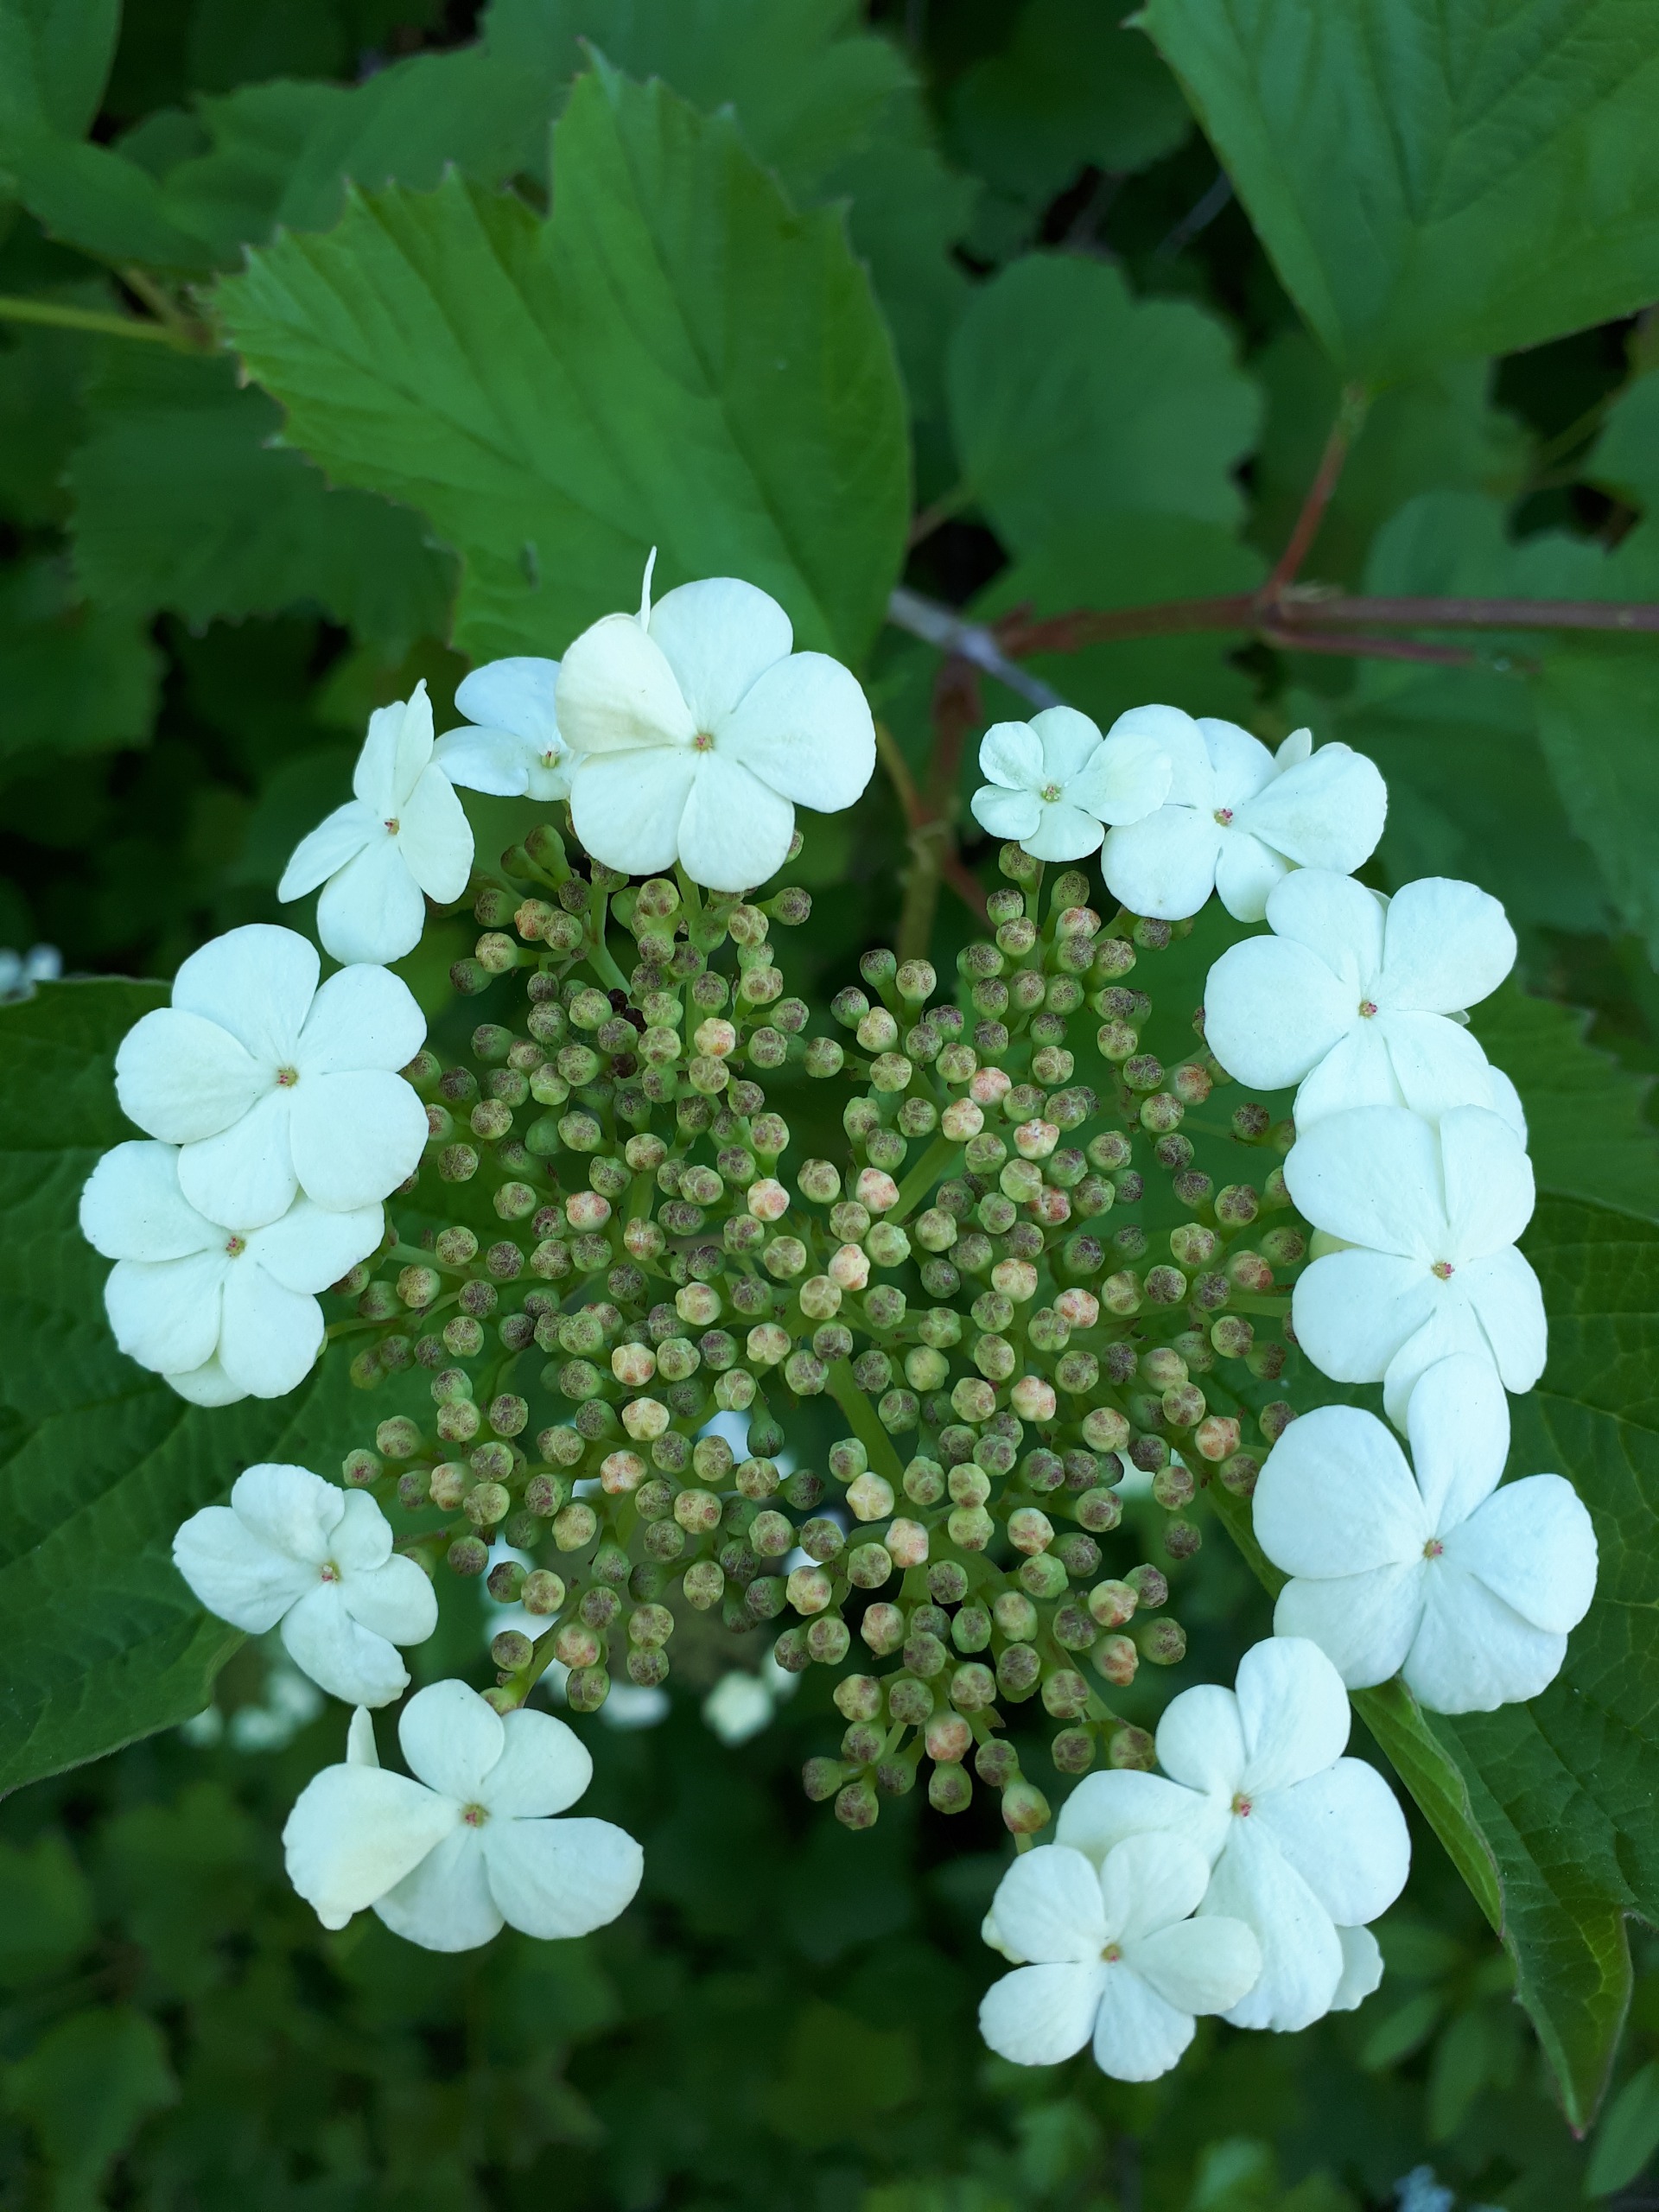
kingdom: Plantae
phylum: Tracheophyta
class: Magnoliopsida
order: Dipsacales
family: Viburnaceae
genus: Viburnum
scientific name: Viburnum opulus
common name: Kvalkved
